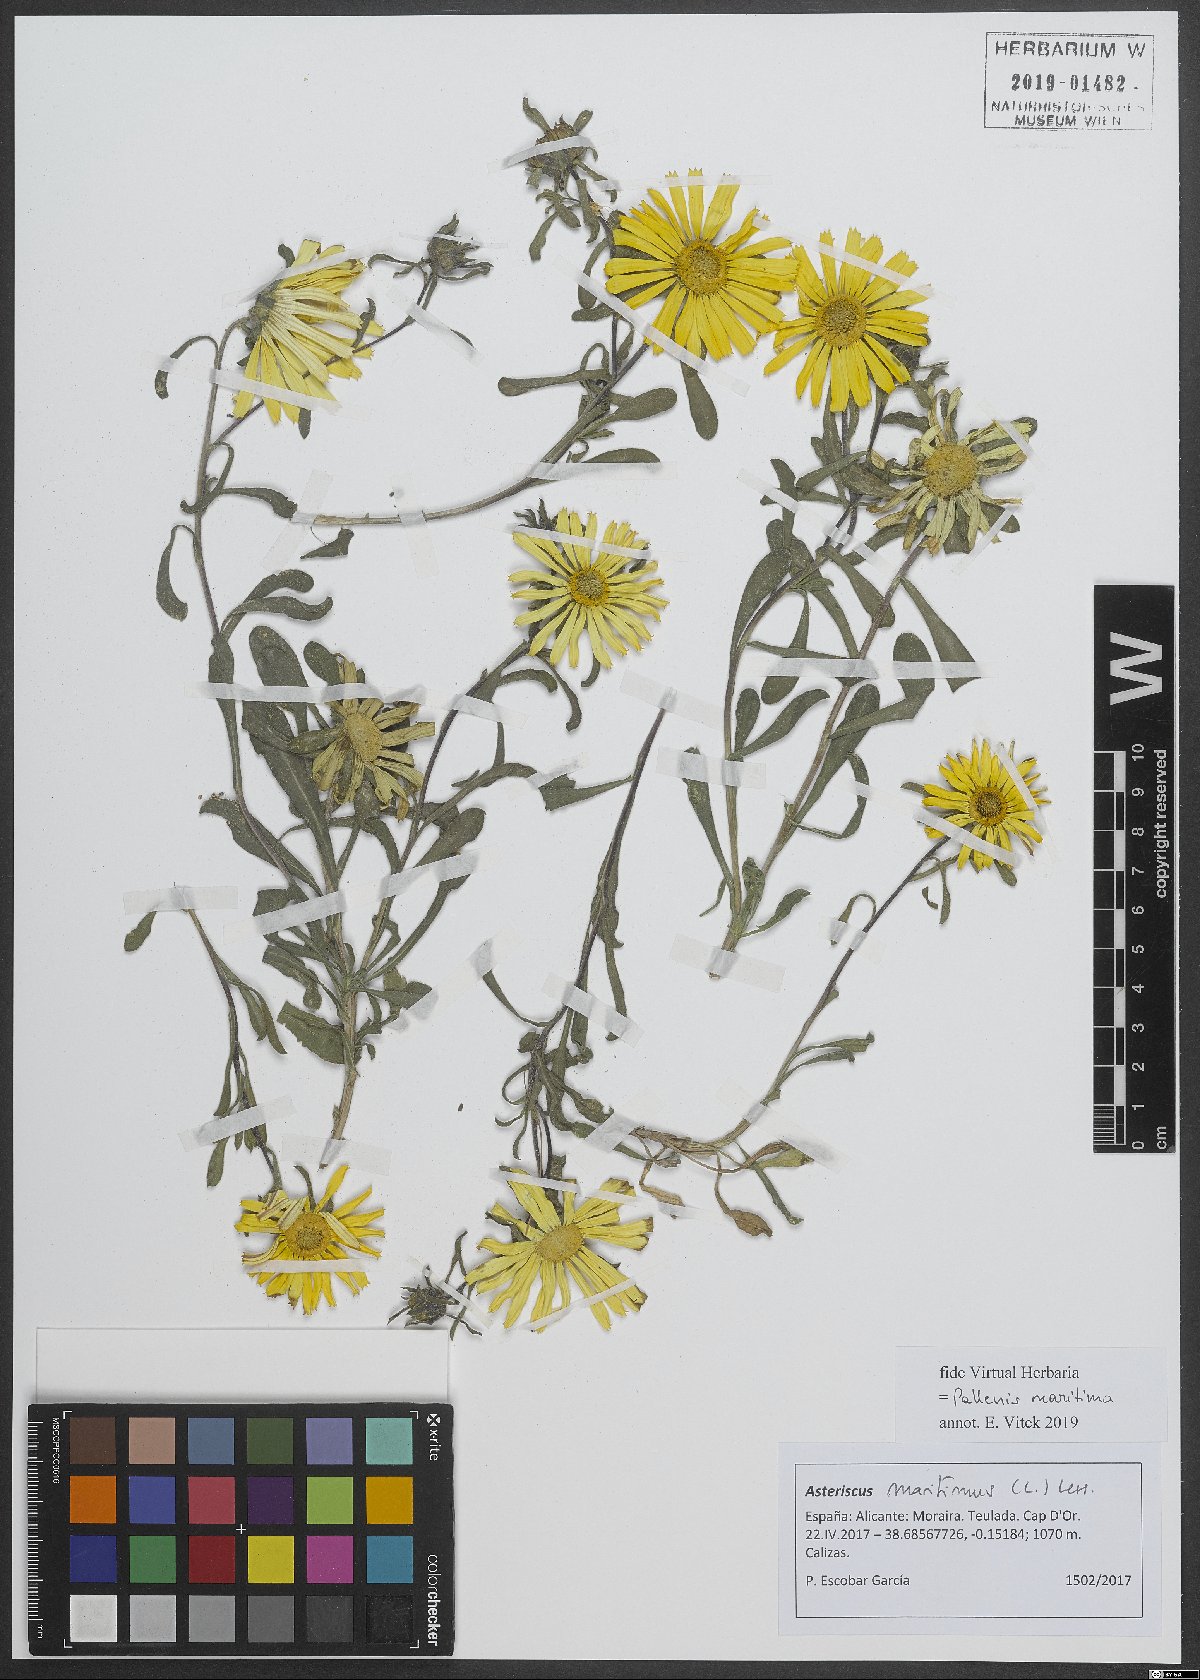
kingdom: Plantae
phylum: Tracheophyta
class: Magnoliopsida
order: Asterales
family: Asteraceae
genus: Pallenis
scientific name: Pallenis maritima
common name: Golden coin daisy
